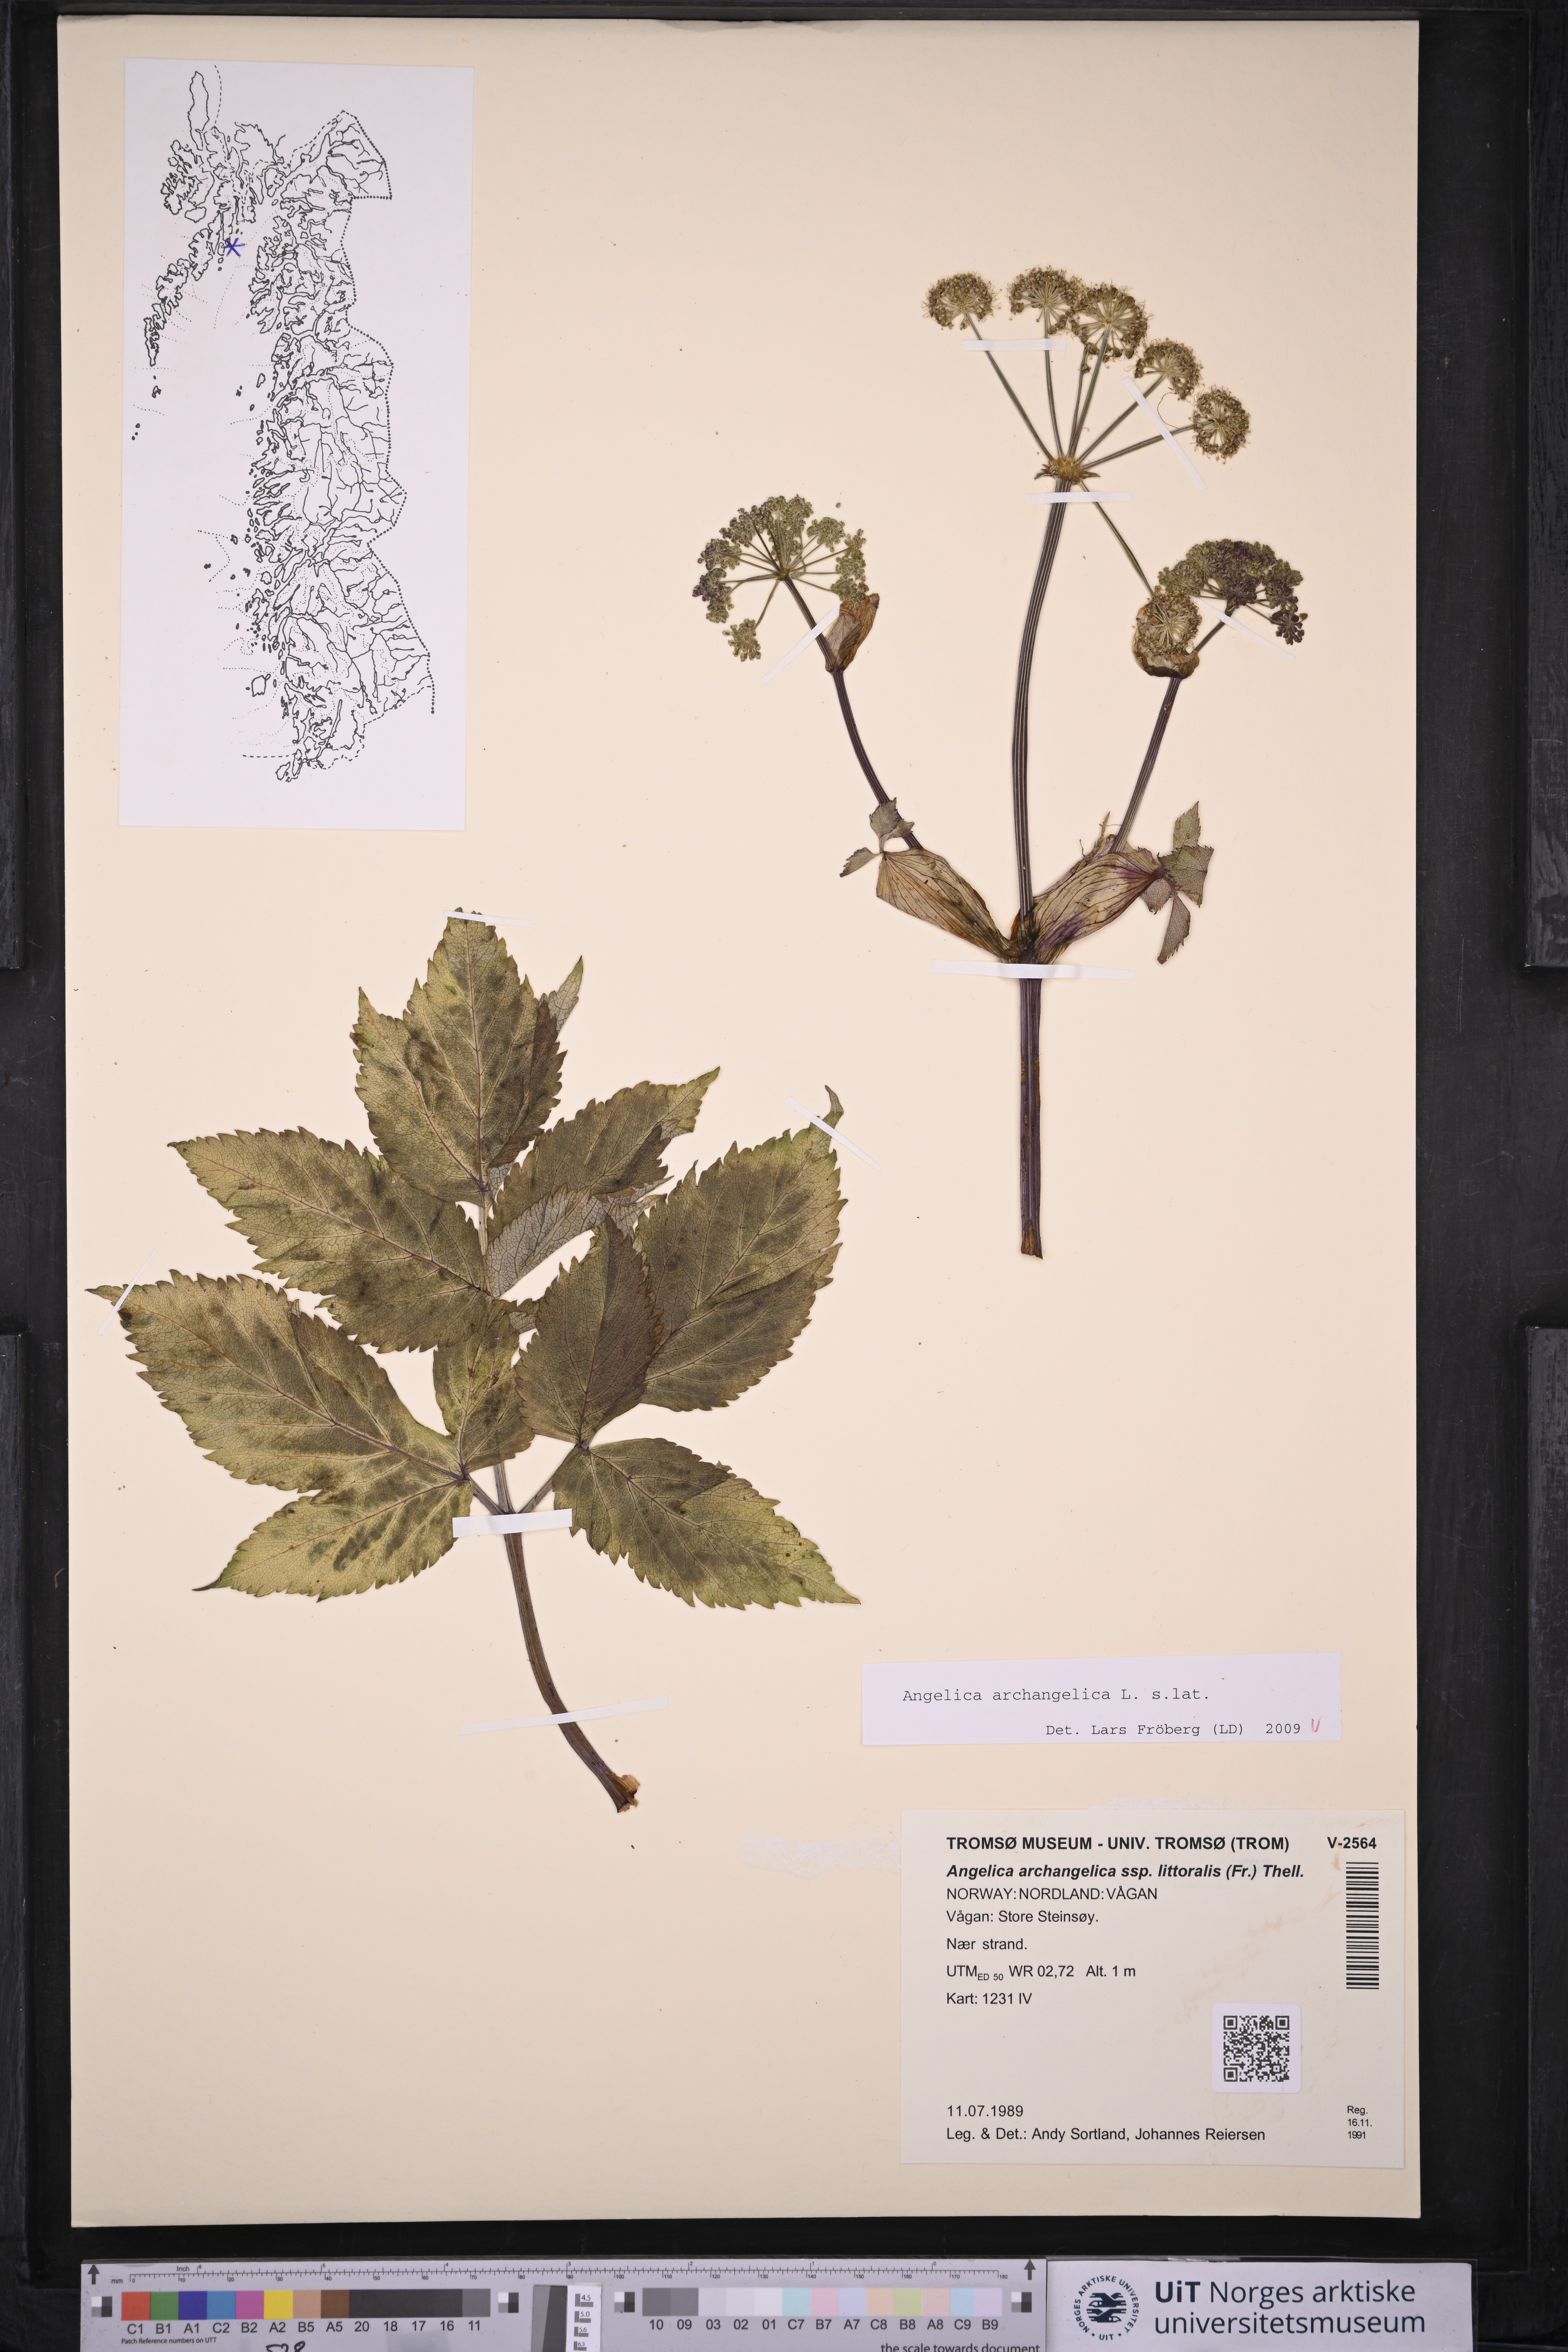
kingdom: Plantae
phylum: Tracheophyta
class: Magnoliopsida
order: Apiales
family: Apiaceae
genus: Angelica
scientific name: Angelica archangelica
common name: Garden angelica
